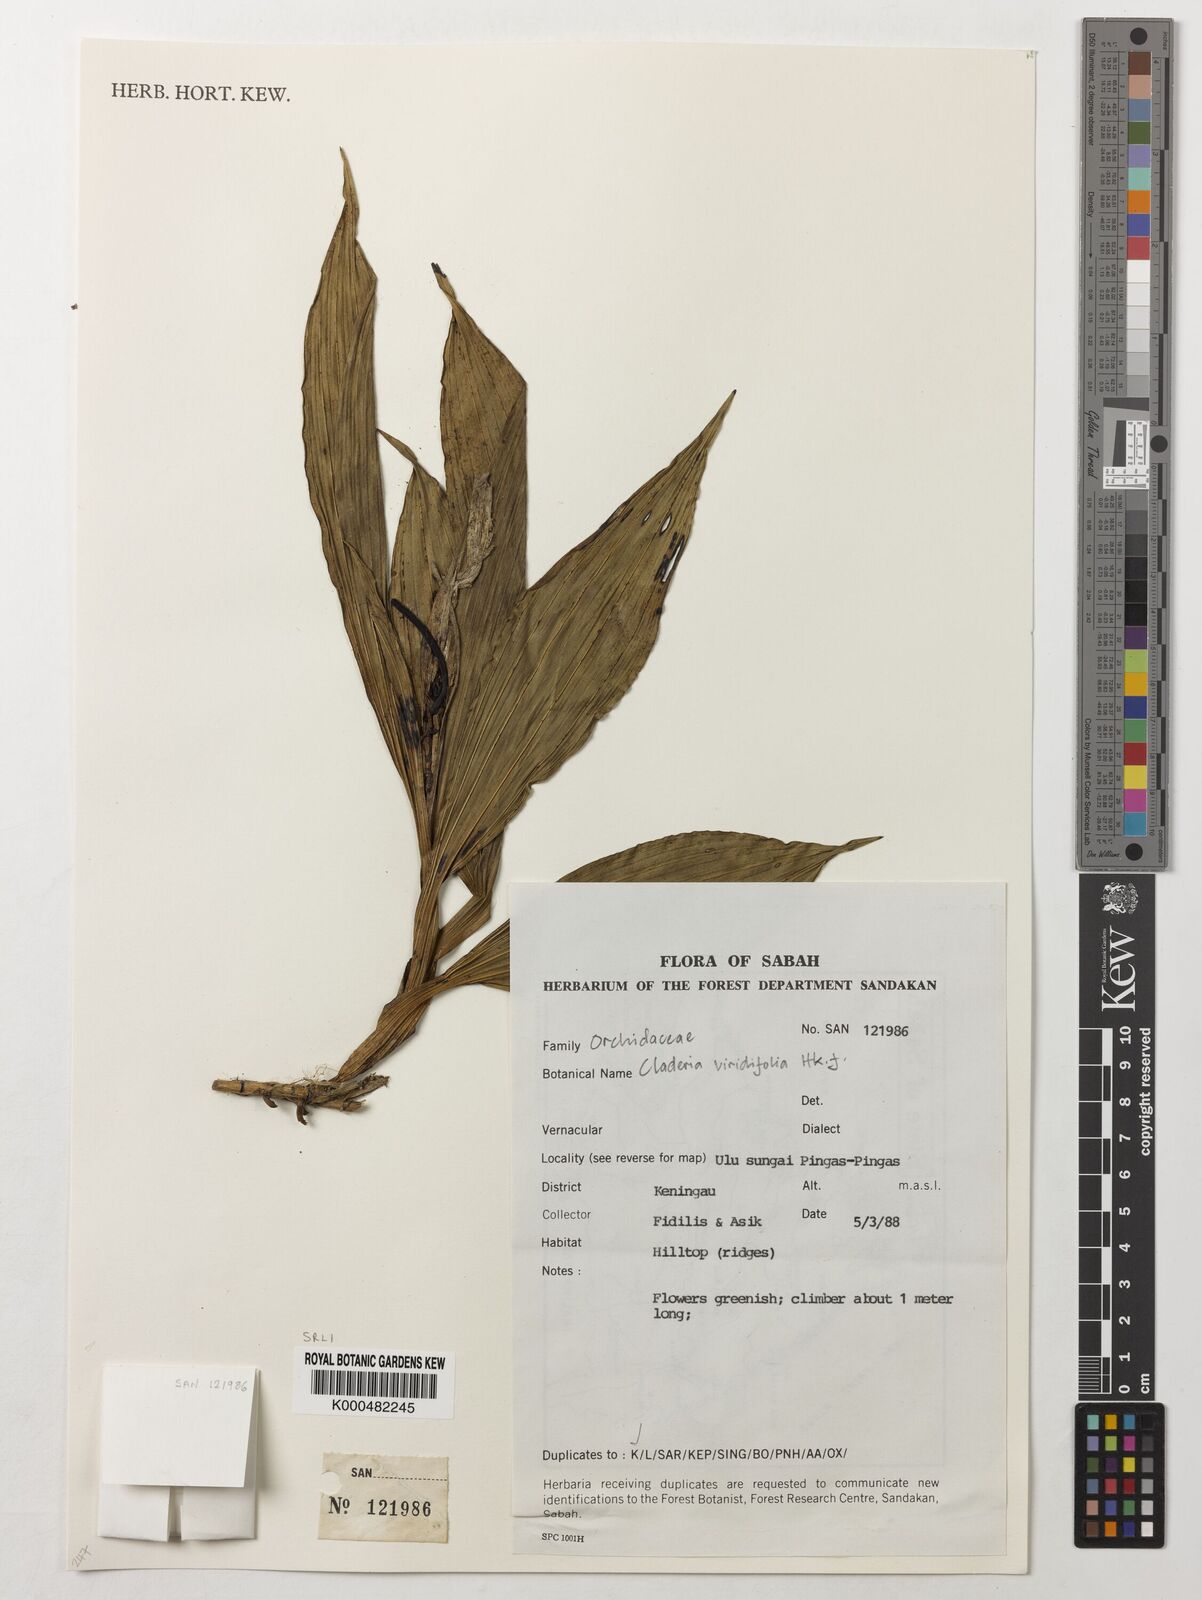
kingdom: Plantae
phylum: Tracheophyta
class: Liliopsida
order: Asparagales
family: Orchidaceae
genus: Claderia
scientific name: Claderia
